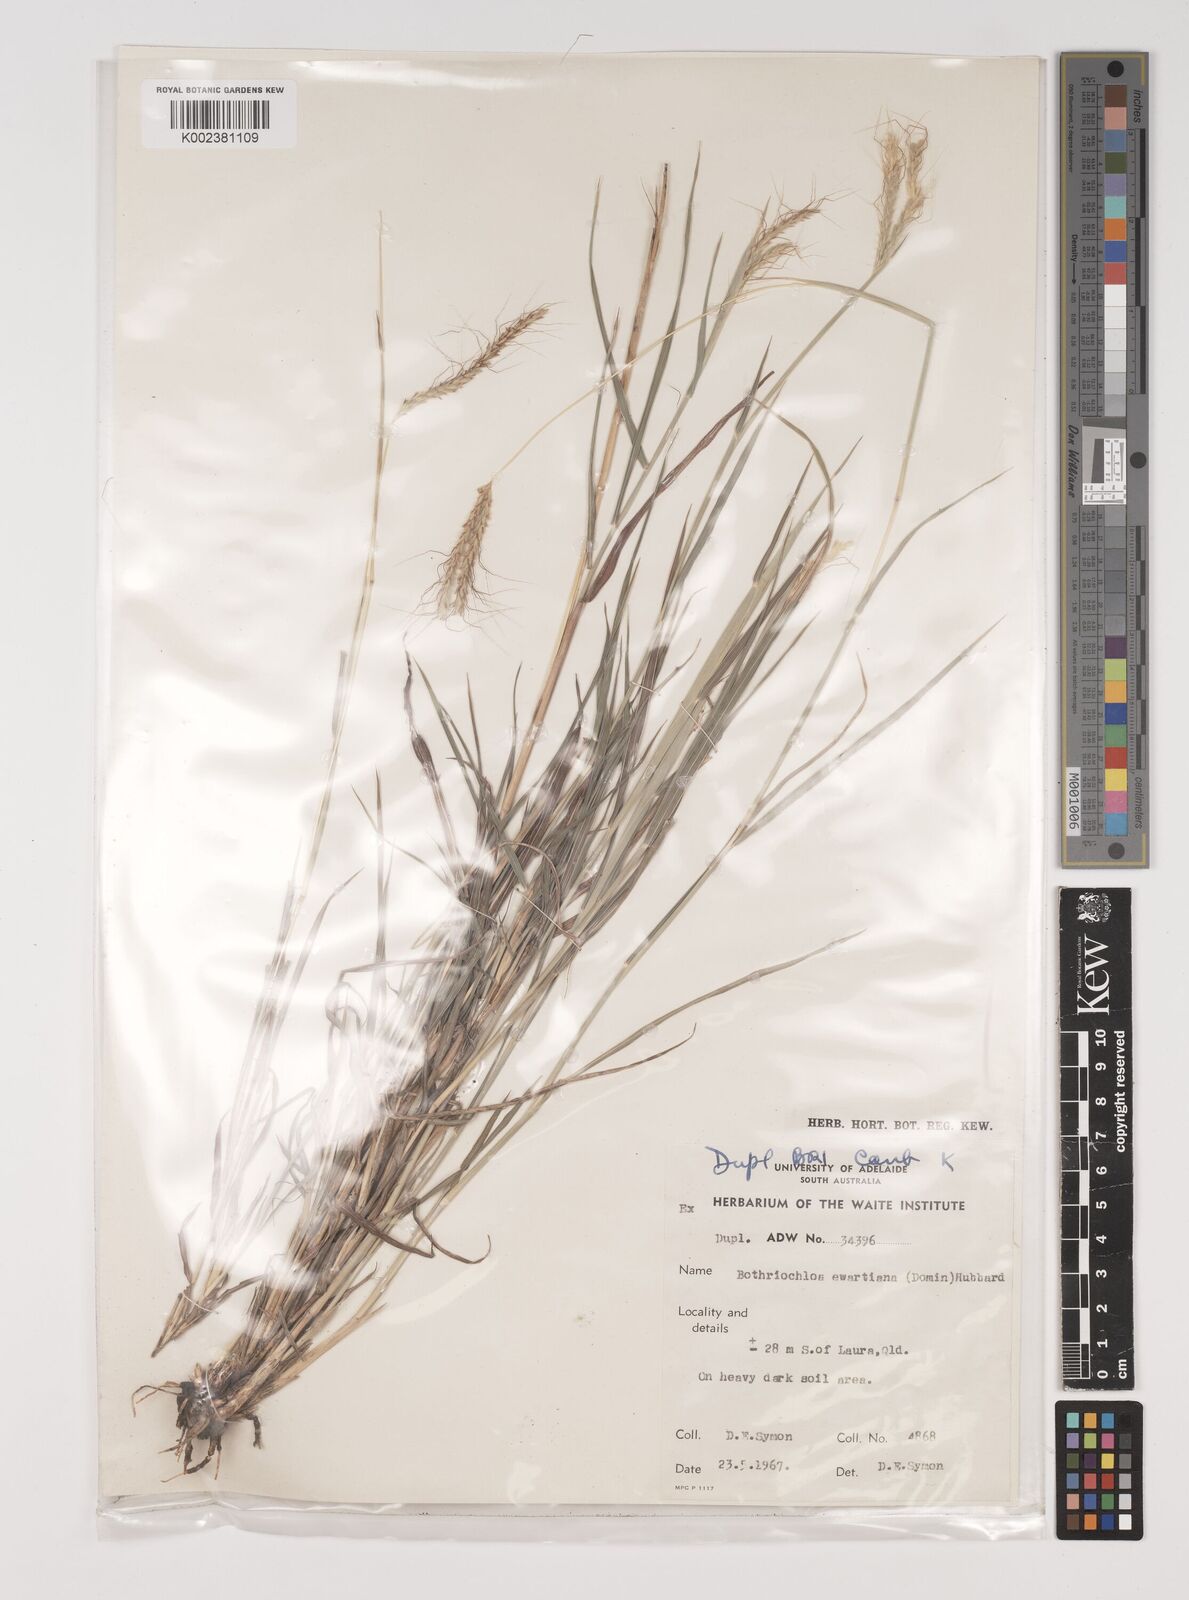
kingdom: Plantae
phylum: Tracheophyta
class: Liliopsida
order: Poales
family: Poaceae
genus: Bothriochloa
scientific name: Bothriochloa ewartiana
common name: Desert-bluegrass
